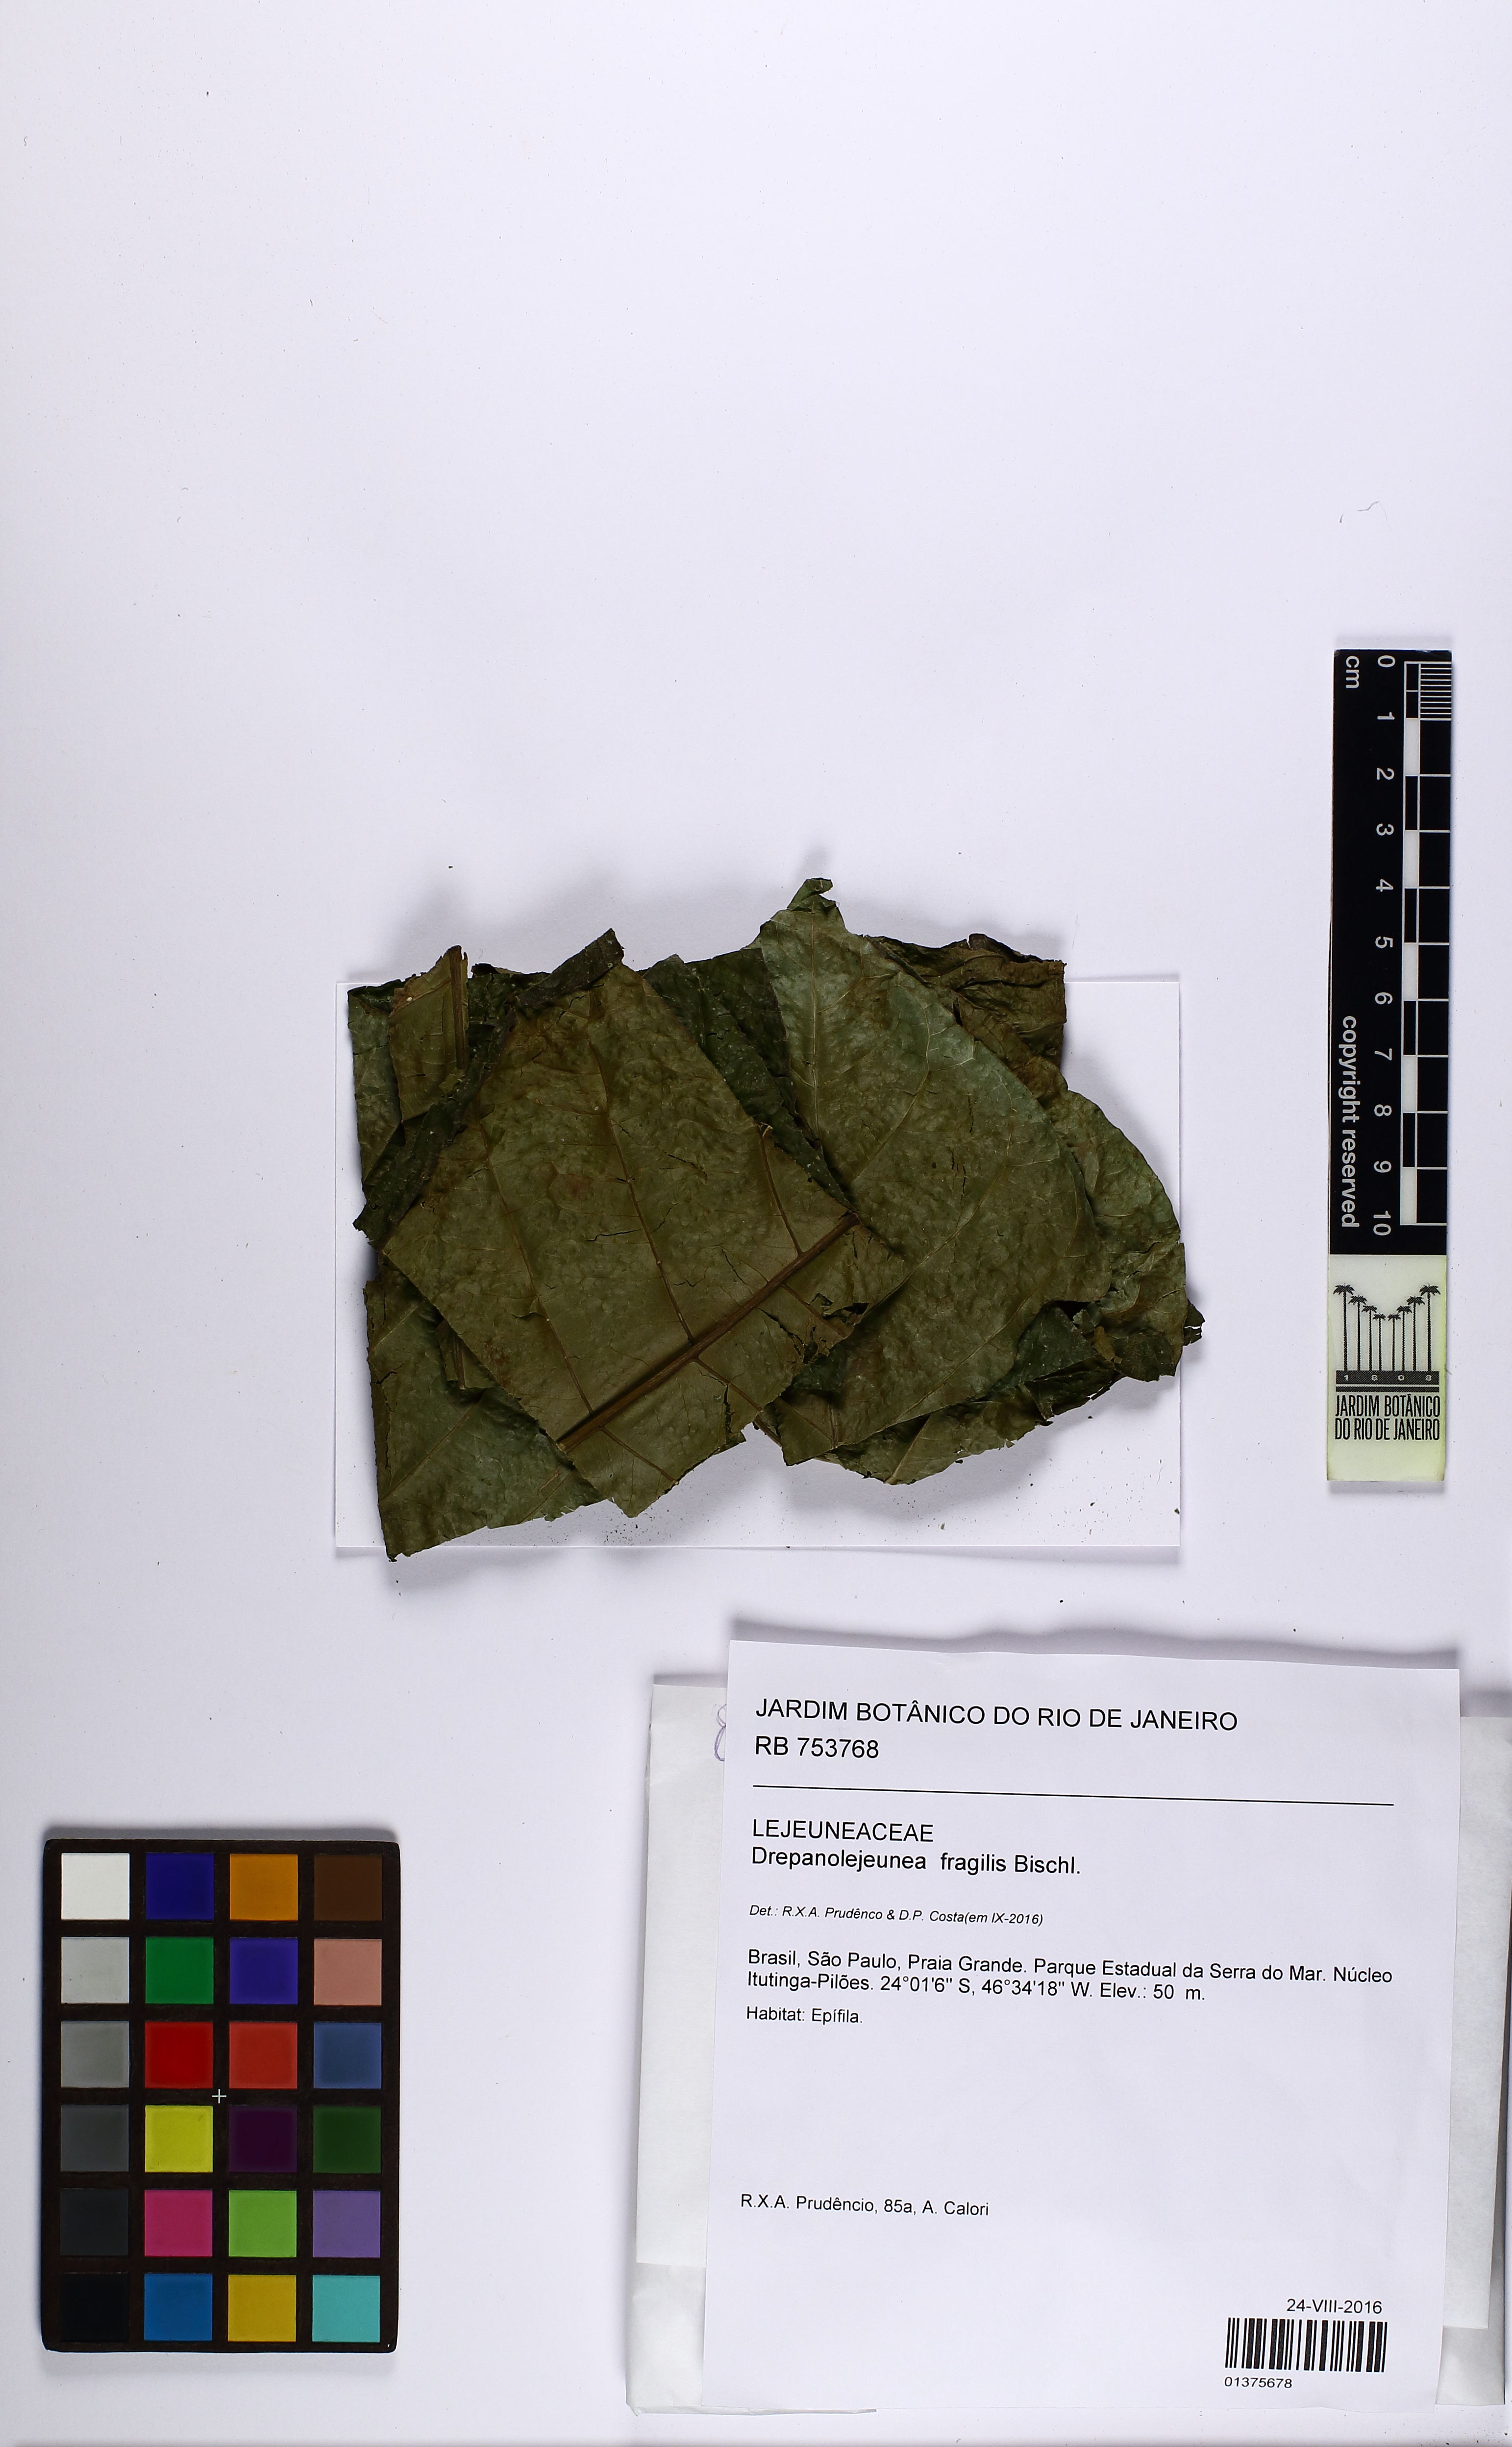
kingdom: Plantae
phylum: Marchantiophyta
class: Jungermanniopsida
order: Porellales
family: Lejeuneaceae
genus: Drepanolejeunea
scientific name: Drepanolejeunea fragilis
